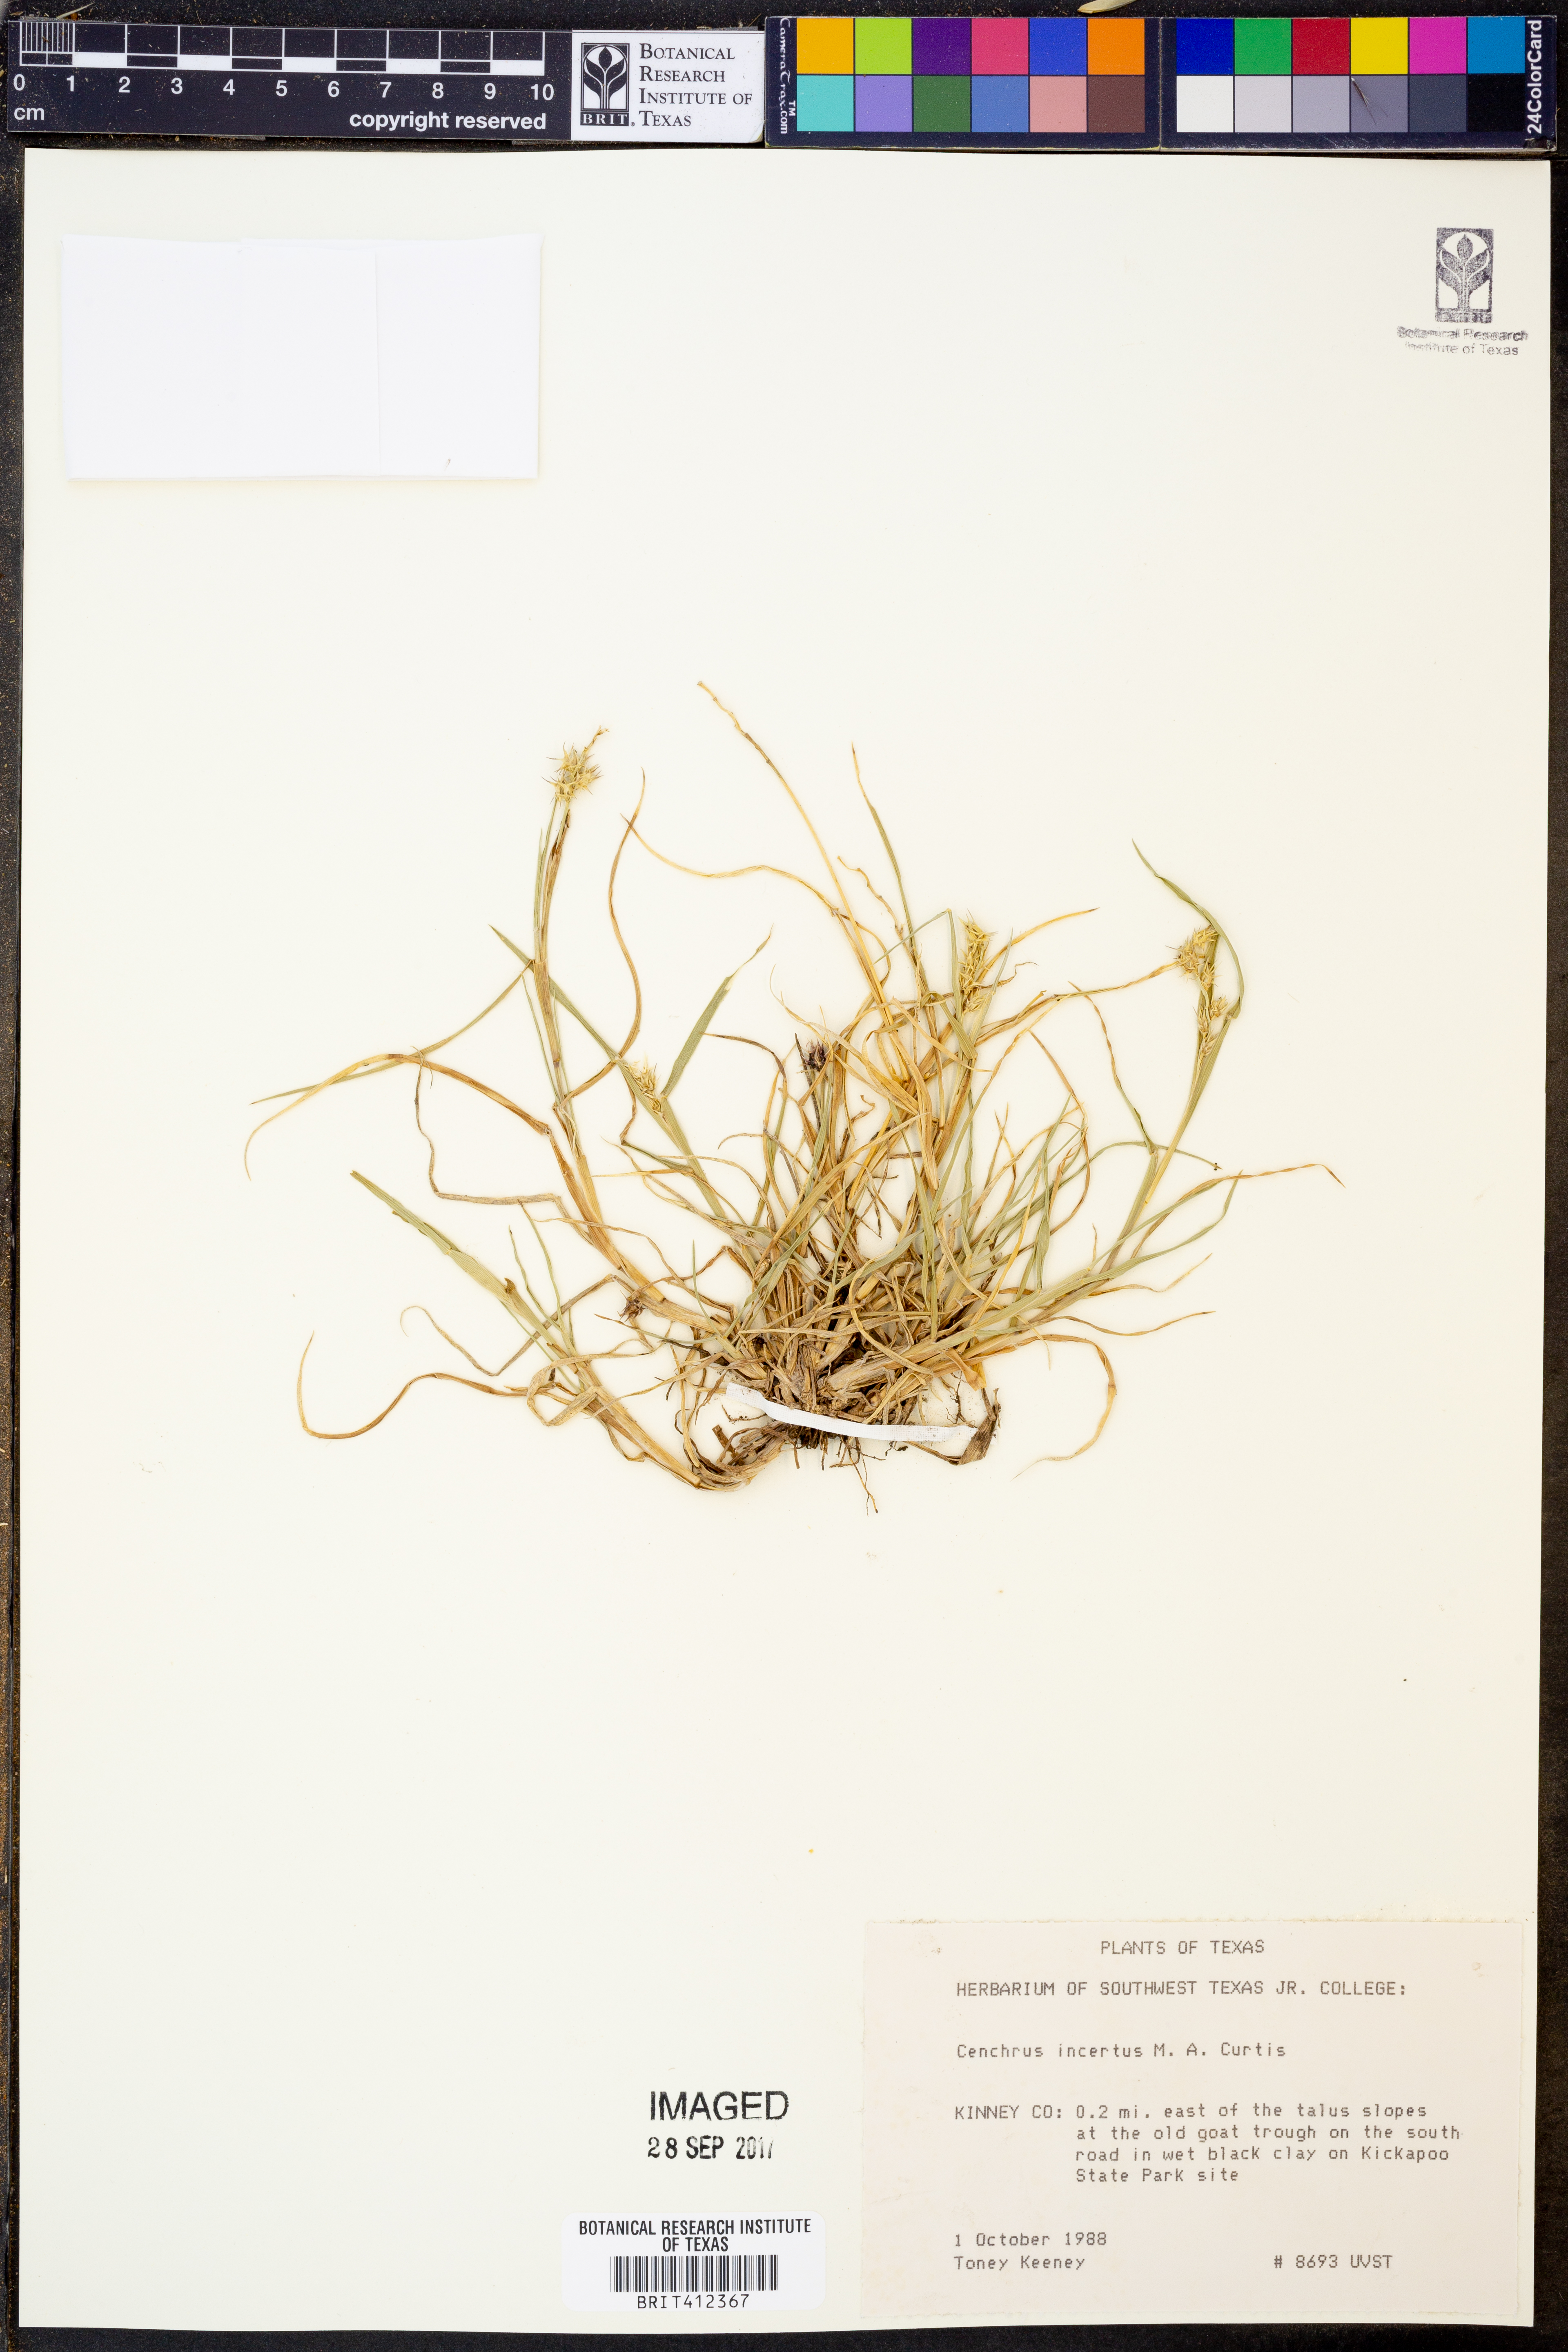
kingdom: Plantae
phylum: Tracheophyta
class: Liliopsida
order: Poales
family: Poaceae
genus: Cenchrus
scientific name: Cenchrus spinifex
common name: Coast sandbur
